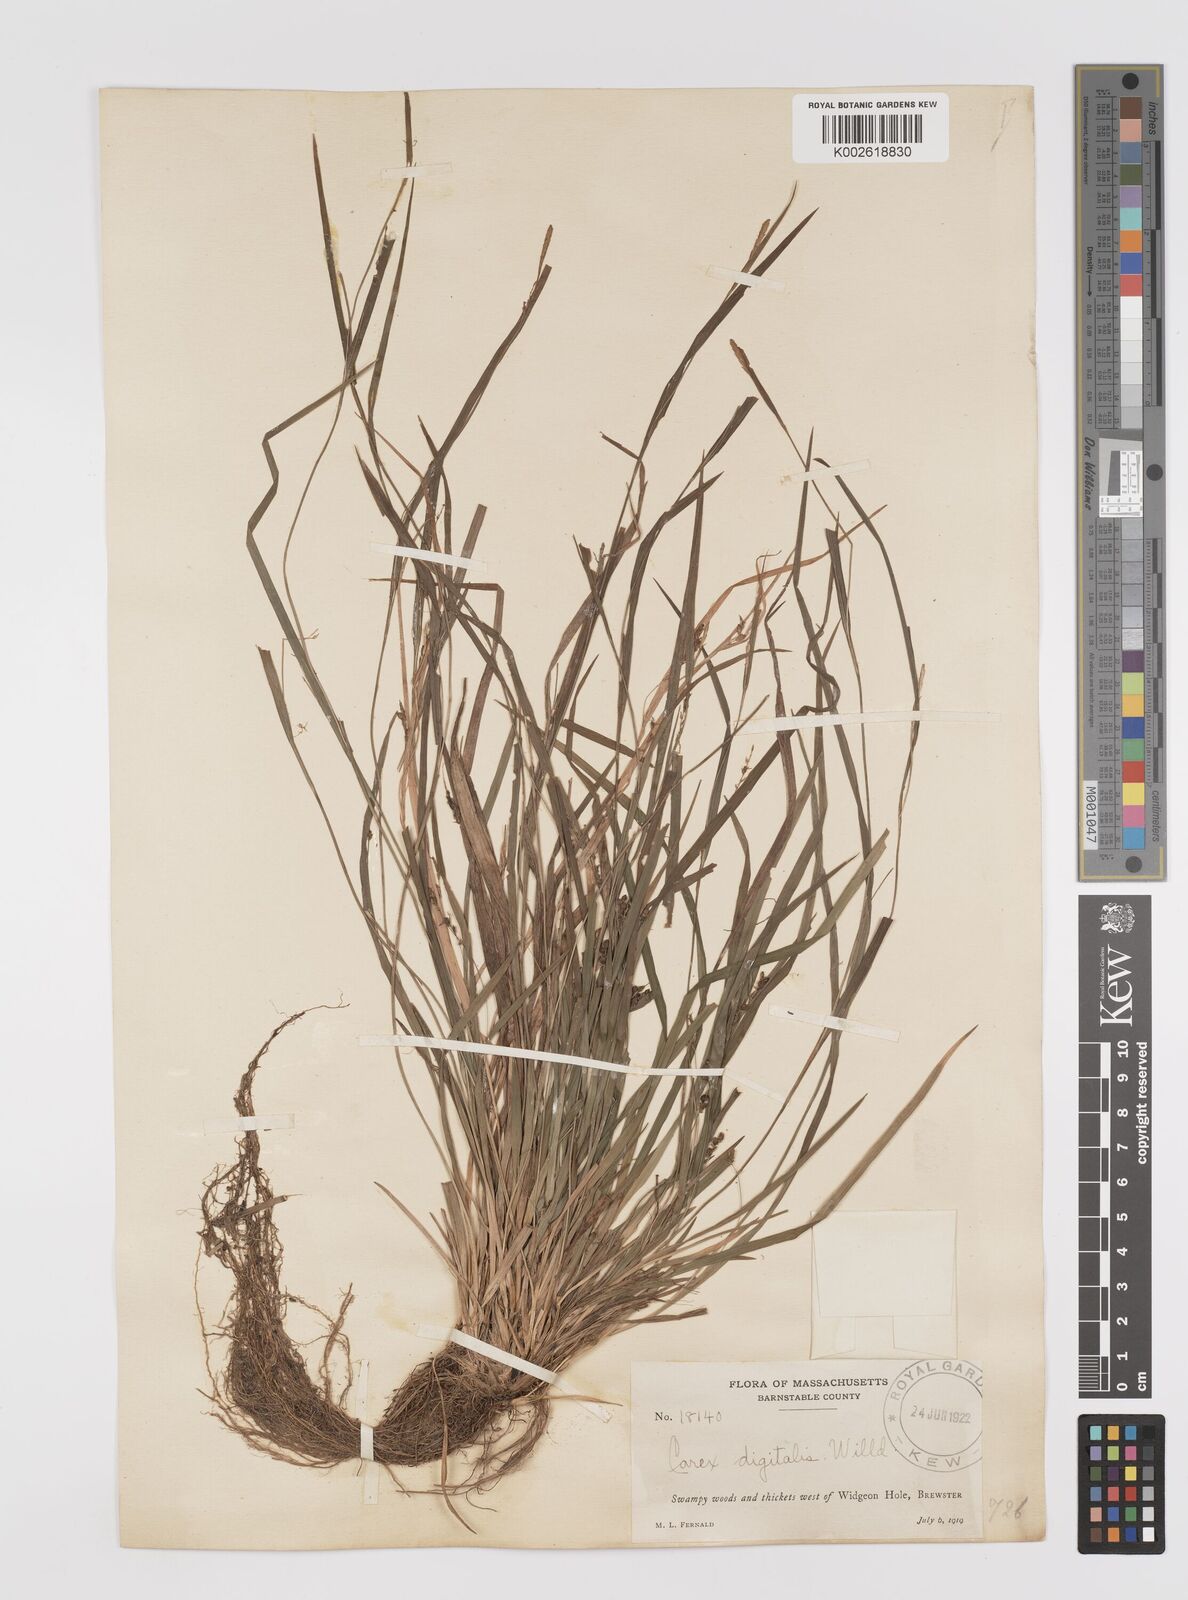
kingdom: Plantae
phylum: Tracheophyta
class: Liliopsida
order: Poales
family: Cyperaceae
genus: Carex
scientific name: Carex digitalis
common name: Slender wood sedge
